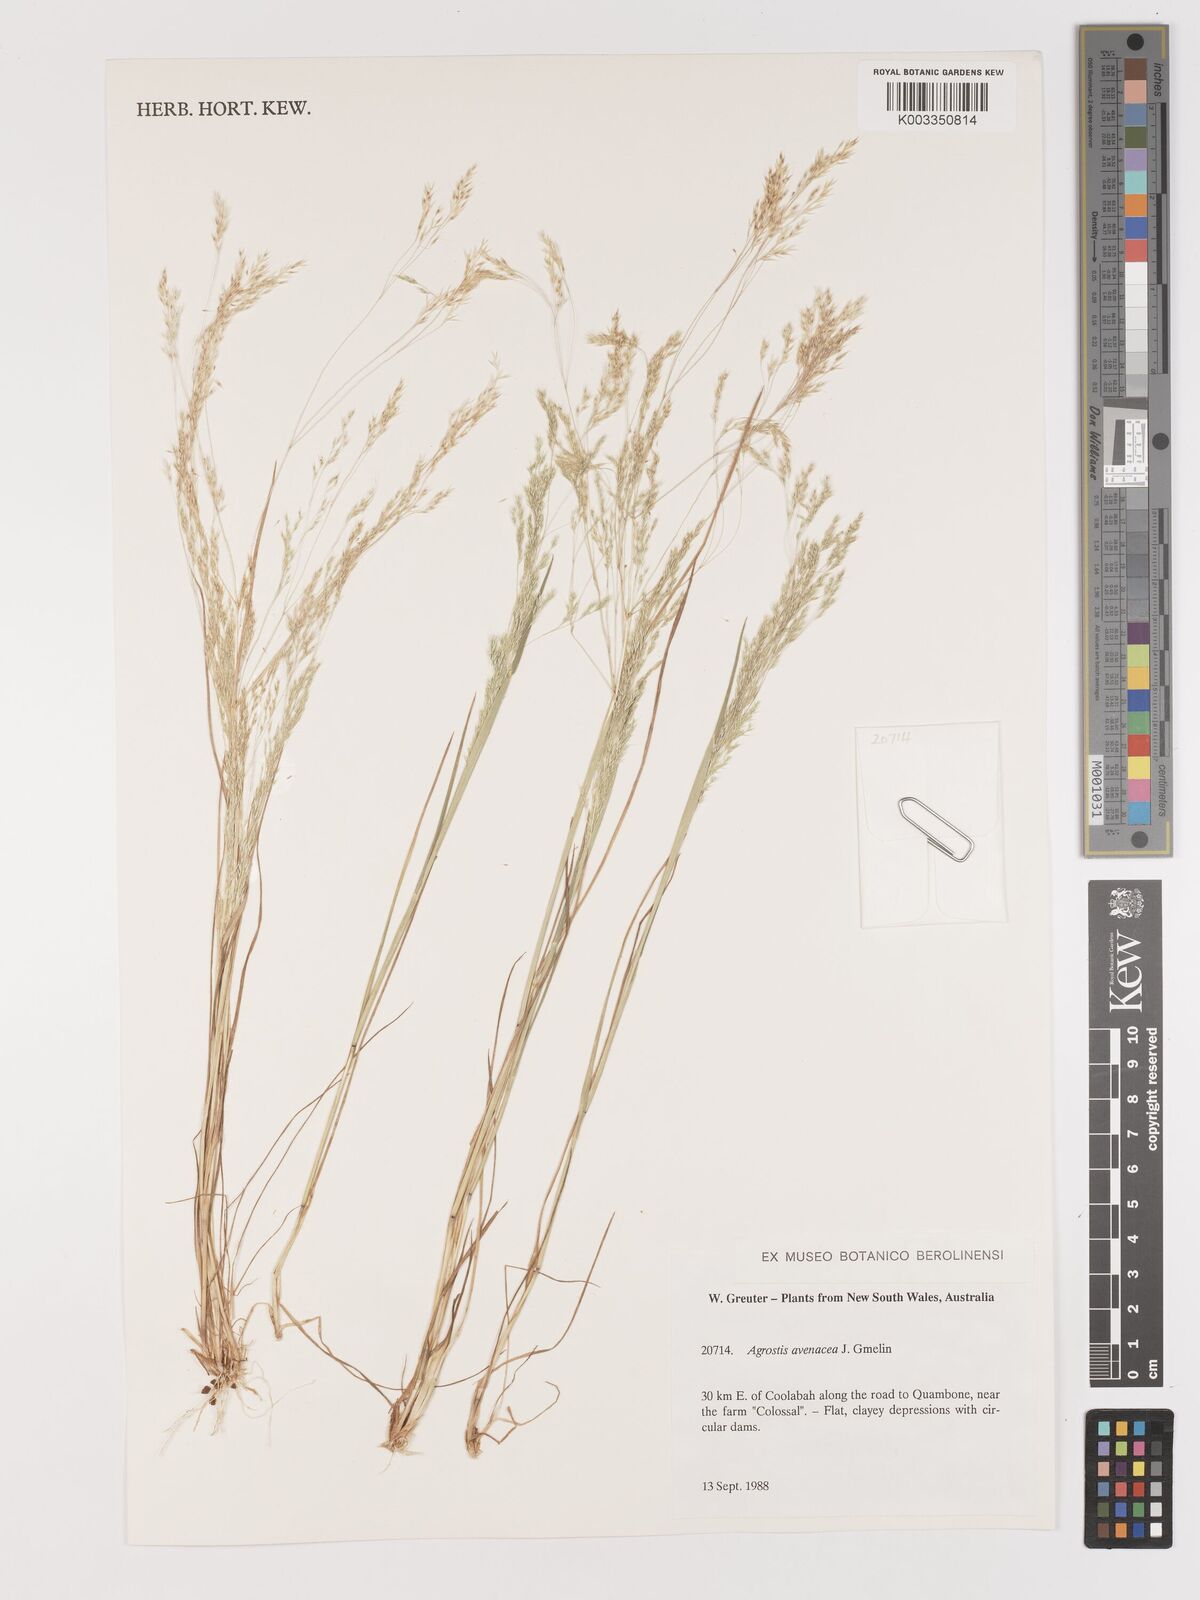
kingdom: Plantae
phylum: Tracheophyta
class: Liliopsida
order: Poales
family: Poaceae
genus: Lachnagrostis
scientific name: Lachnagrostis filiformis
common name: Bentgrass
